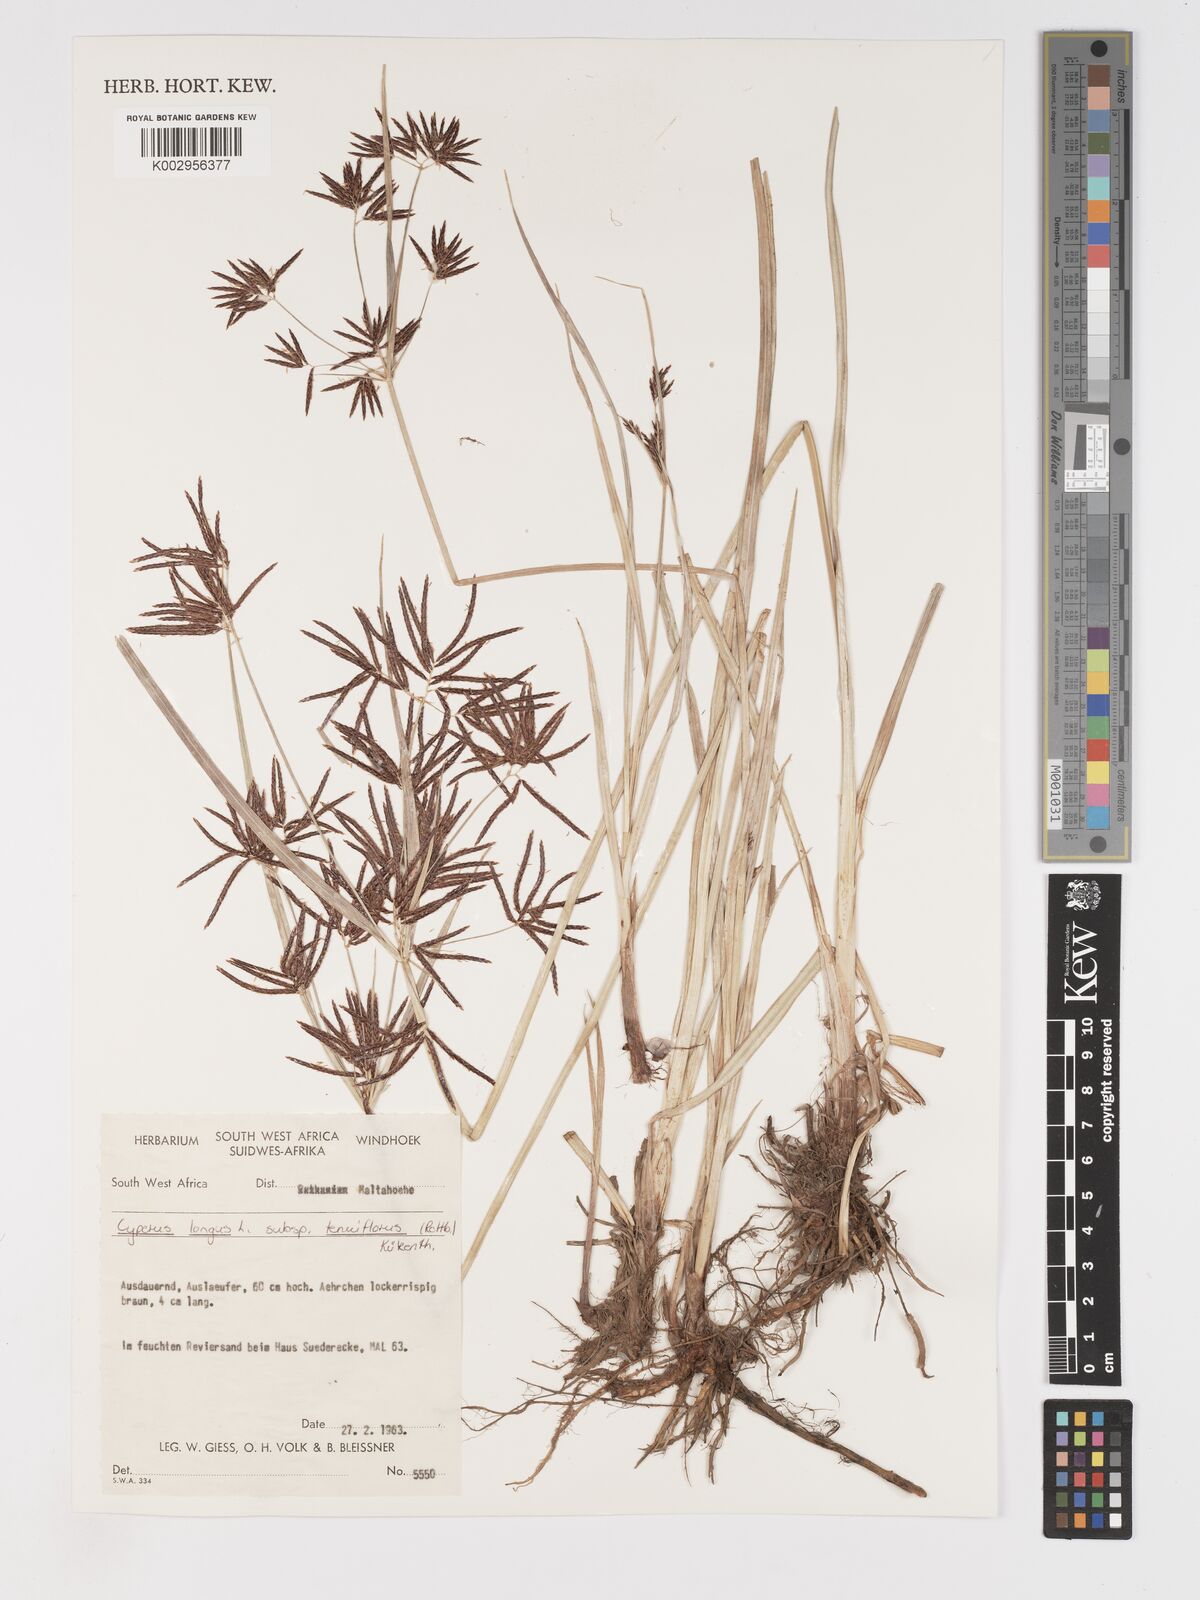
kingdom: Plantae
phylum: Tracheophyta
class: Liliopsida
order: Poales
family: Cyperaceae
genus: Cyperus
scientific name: Cyperus longus
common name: Galingale
